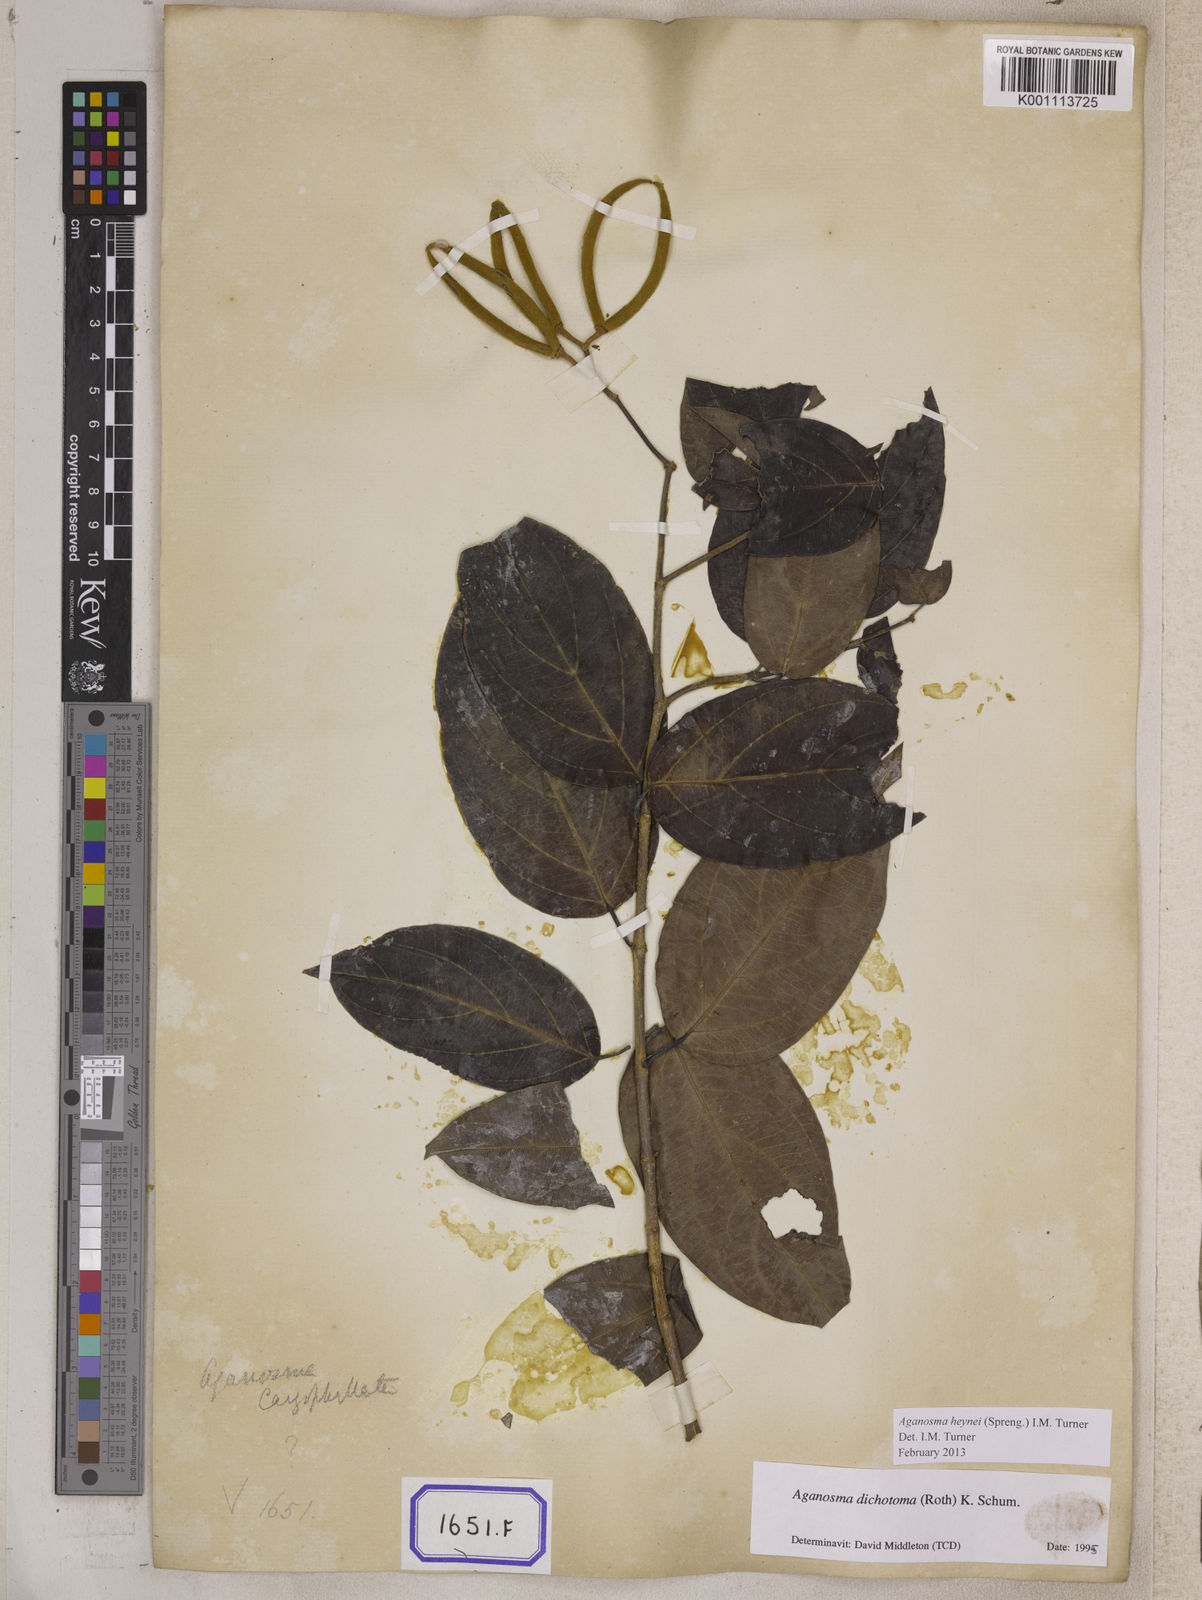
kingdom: Plantae
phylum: Tracheophyta
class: Magnoliopsida
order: Gentianales
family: Apocynaceae
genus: Kamettia
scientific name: Kamettia caryophyllata
